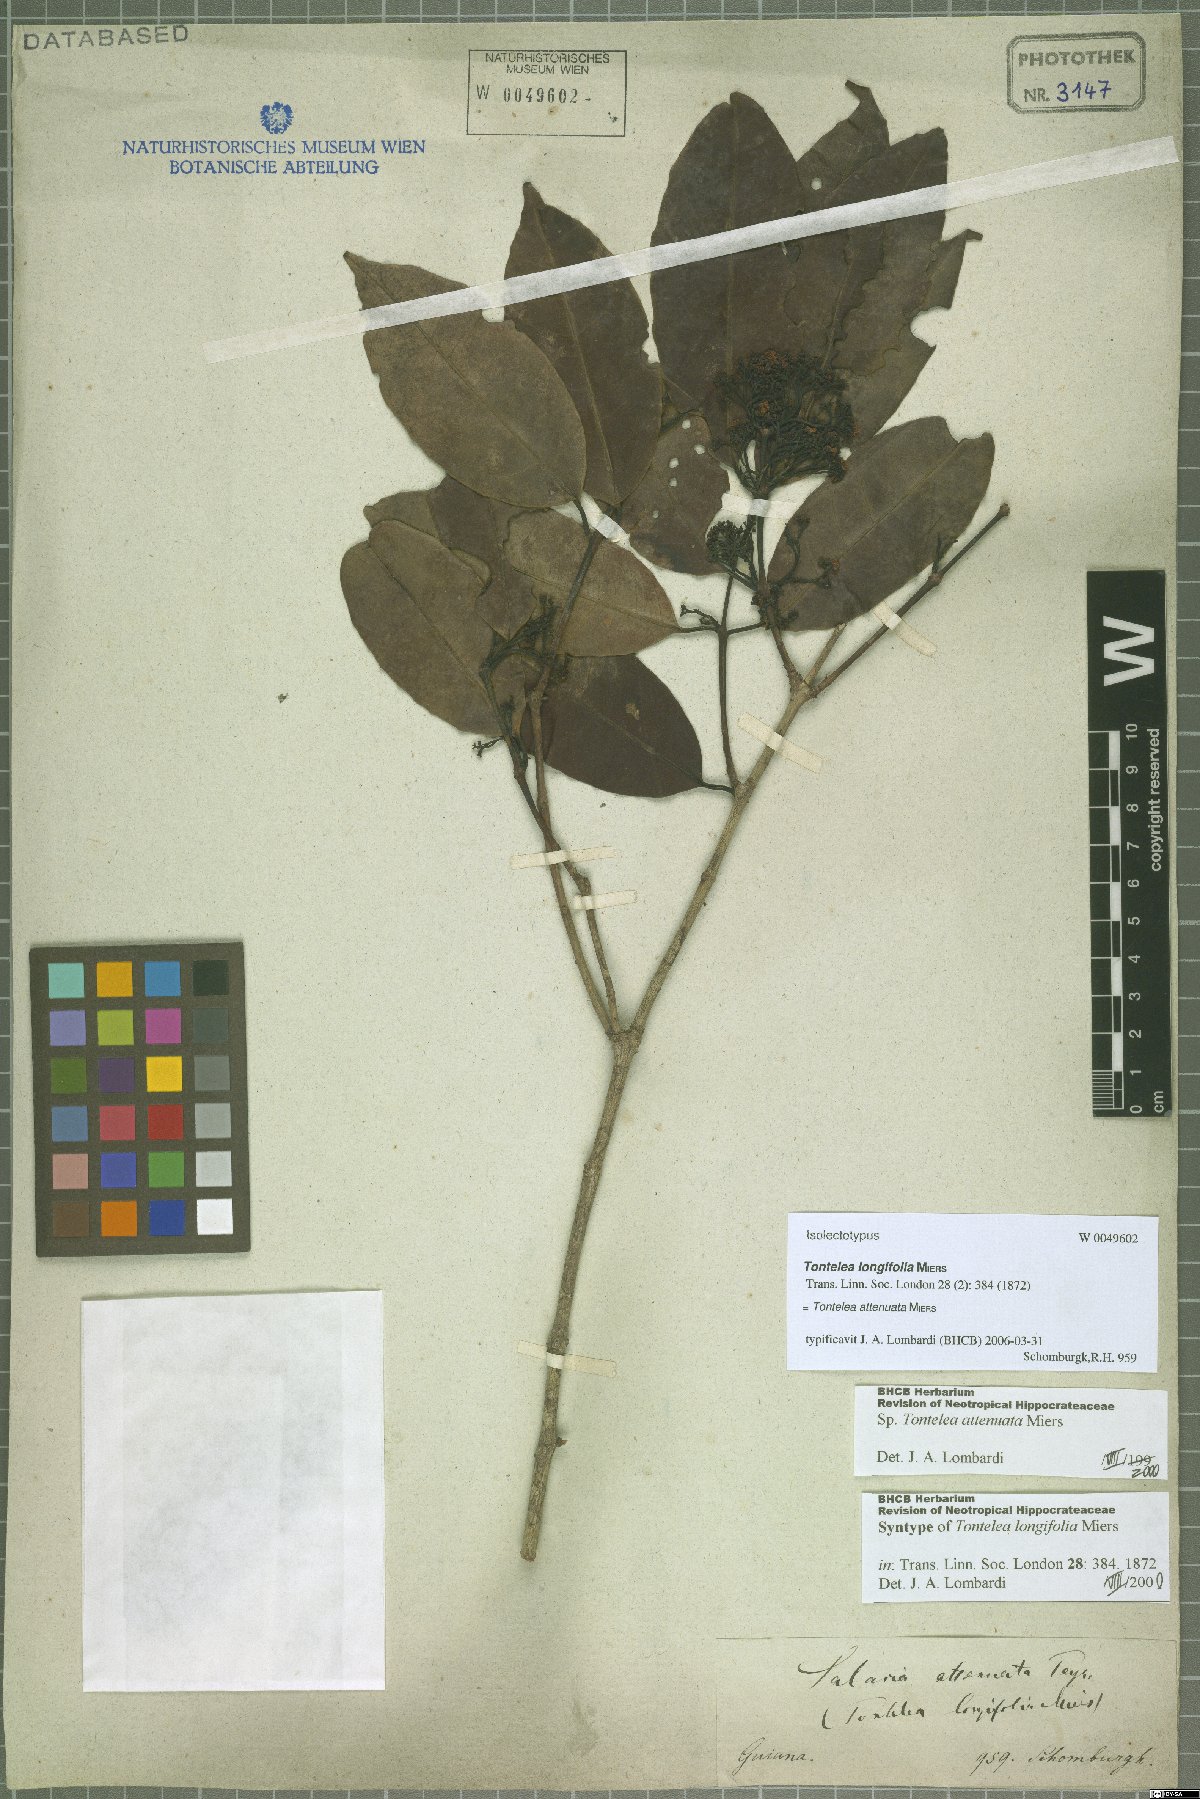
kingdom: Plantae
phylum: Tracheophyta
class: Magnoliopsida
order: Celastrales
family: Celastraceae
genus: Tontelea
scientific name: Tontelea attenuata
